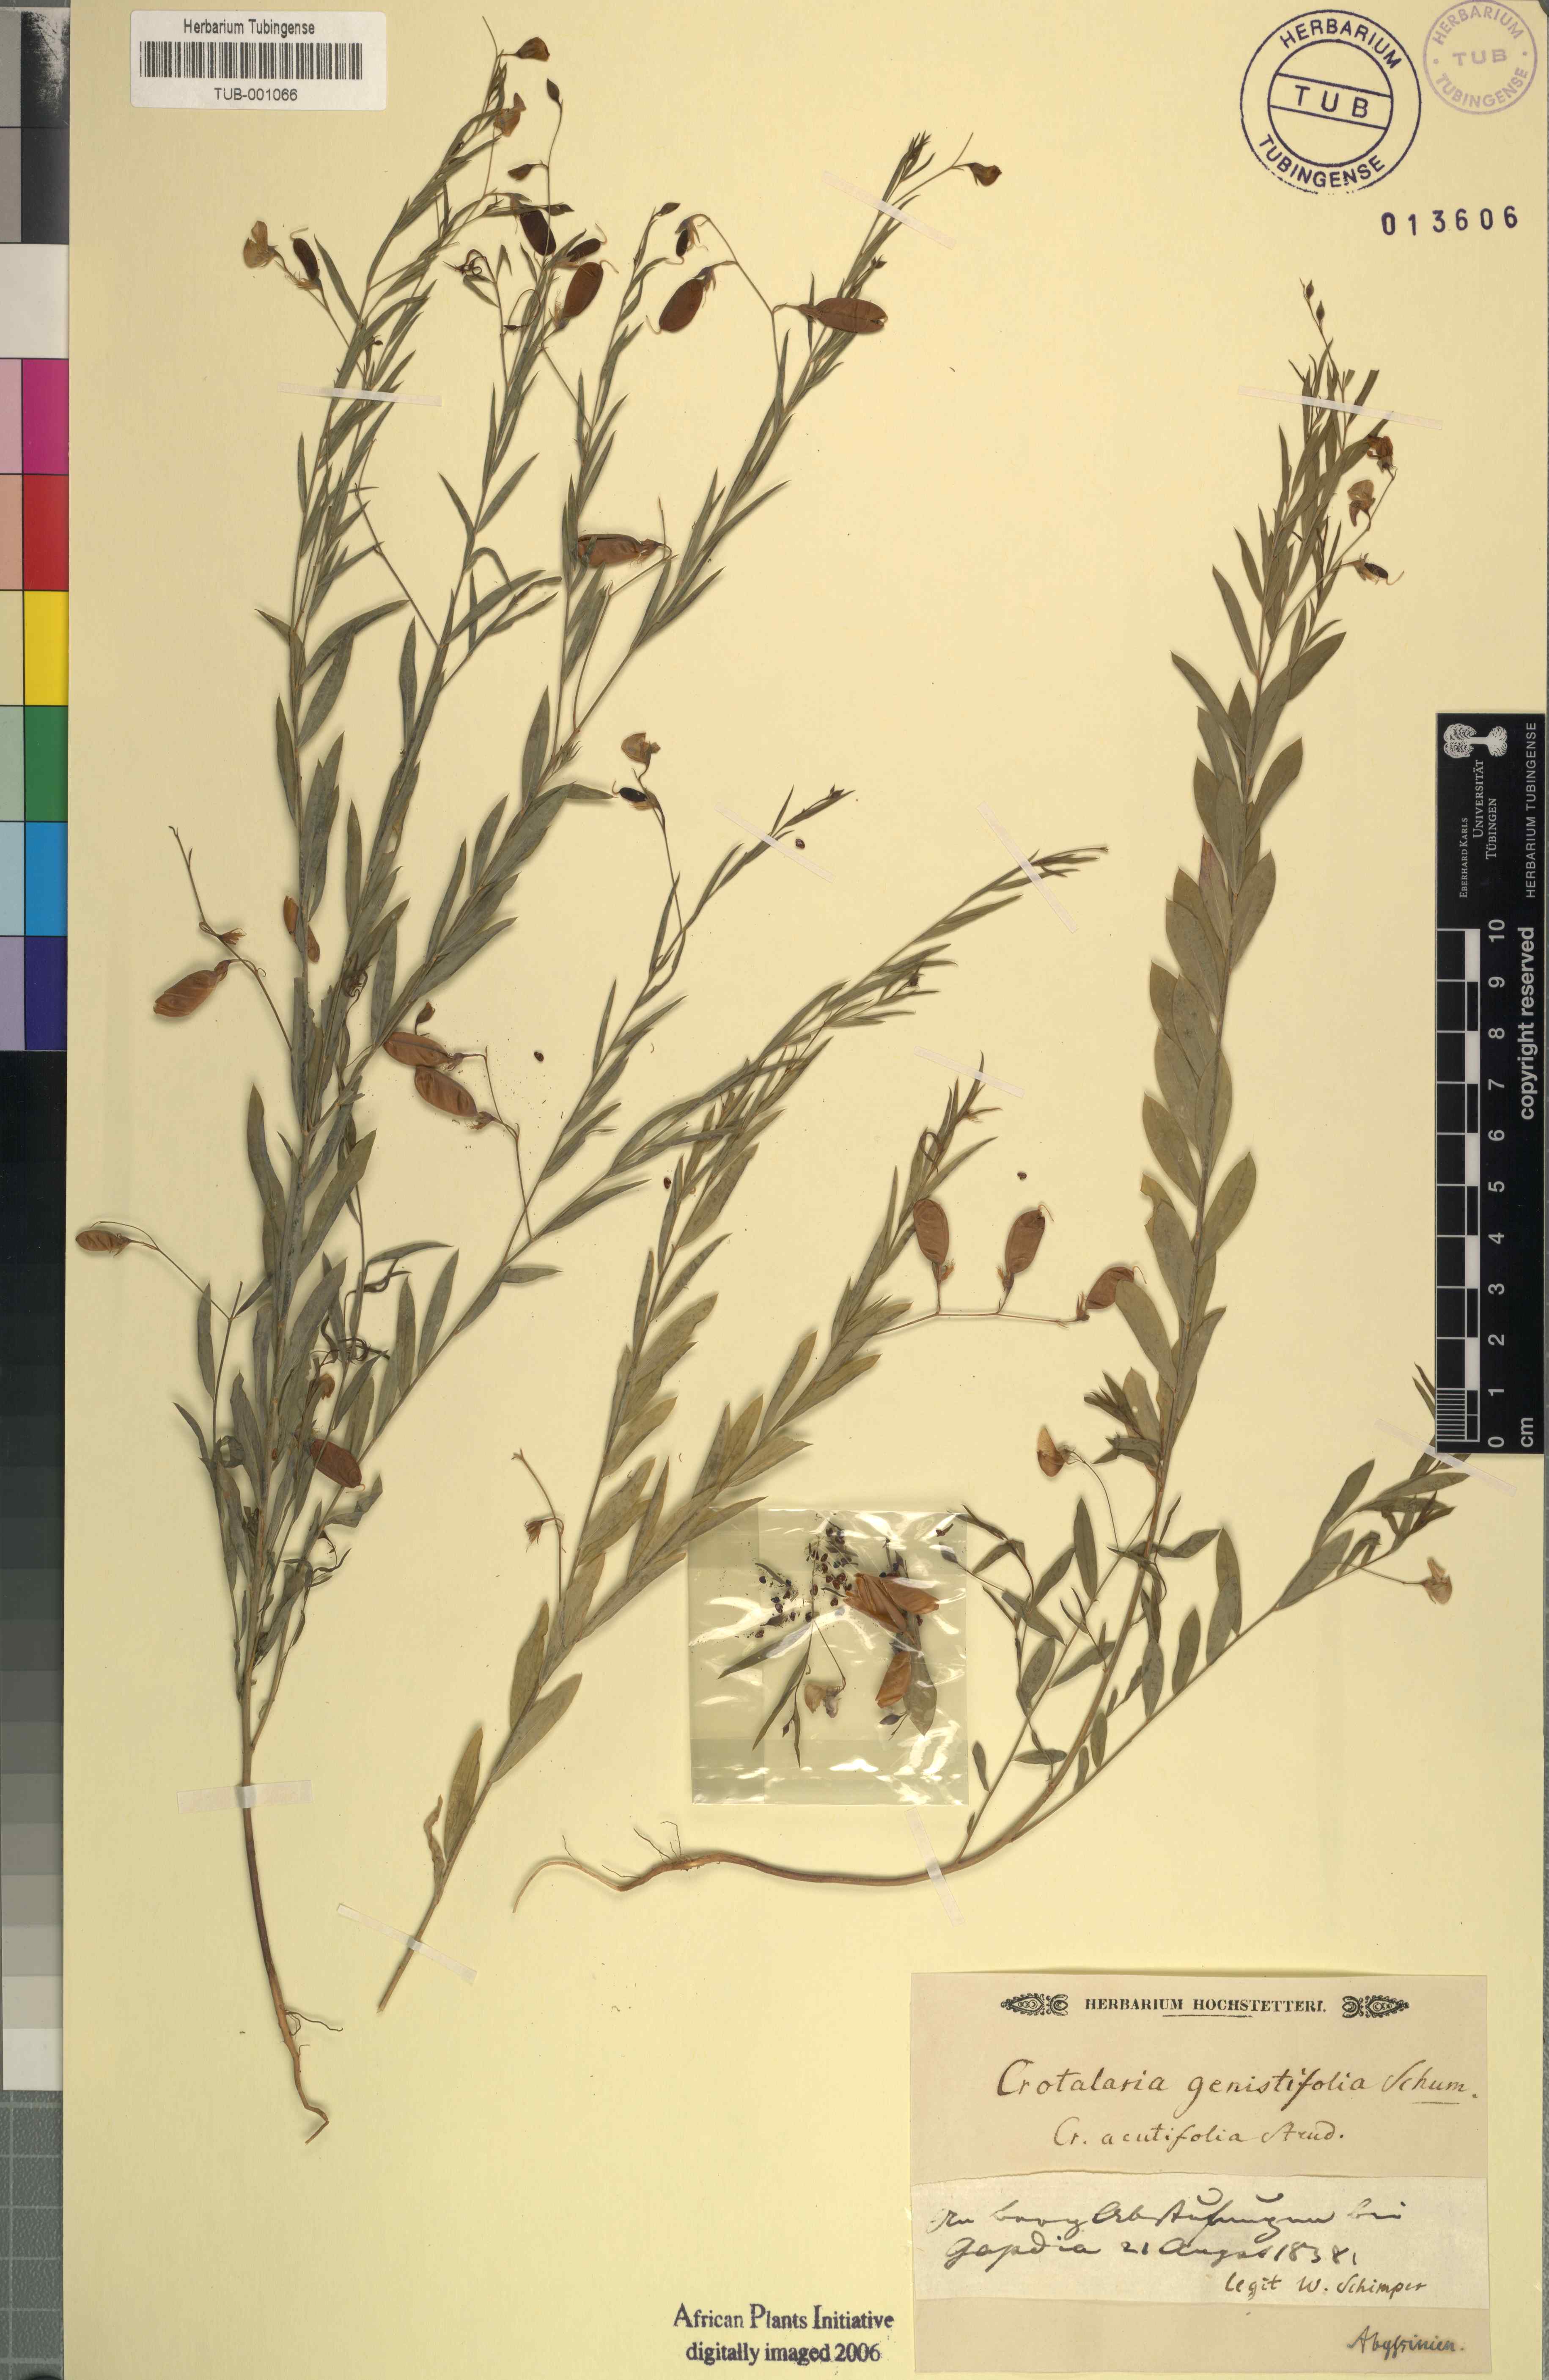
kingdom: Plantae
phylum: Tracheophyta
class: Magnoliopsida
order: Fabales
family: Fabaceae
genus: Crotalaria
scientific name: Crotalaria glauca
